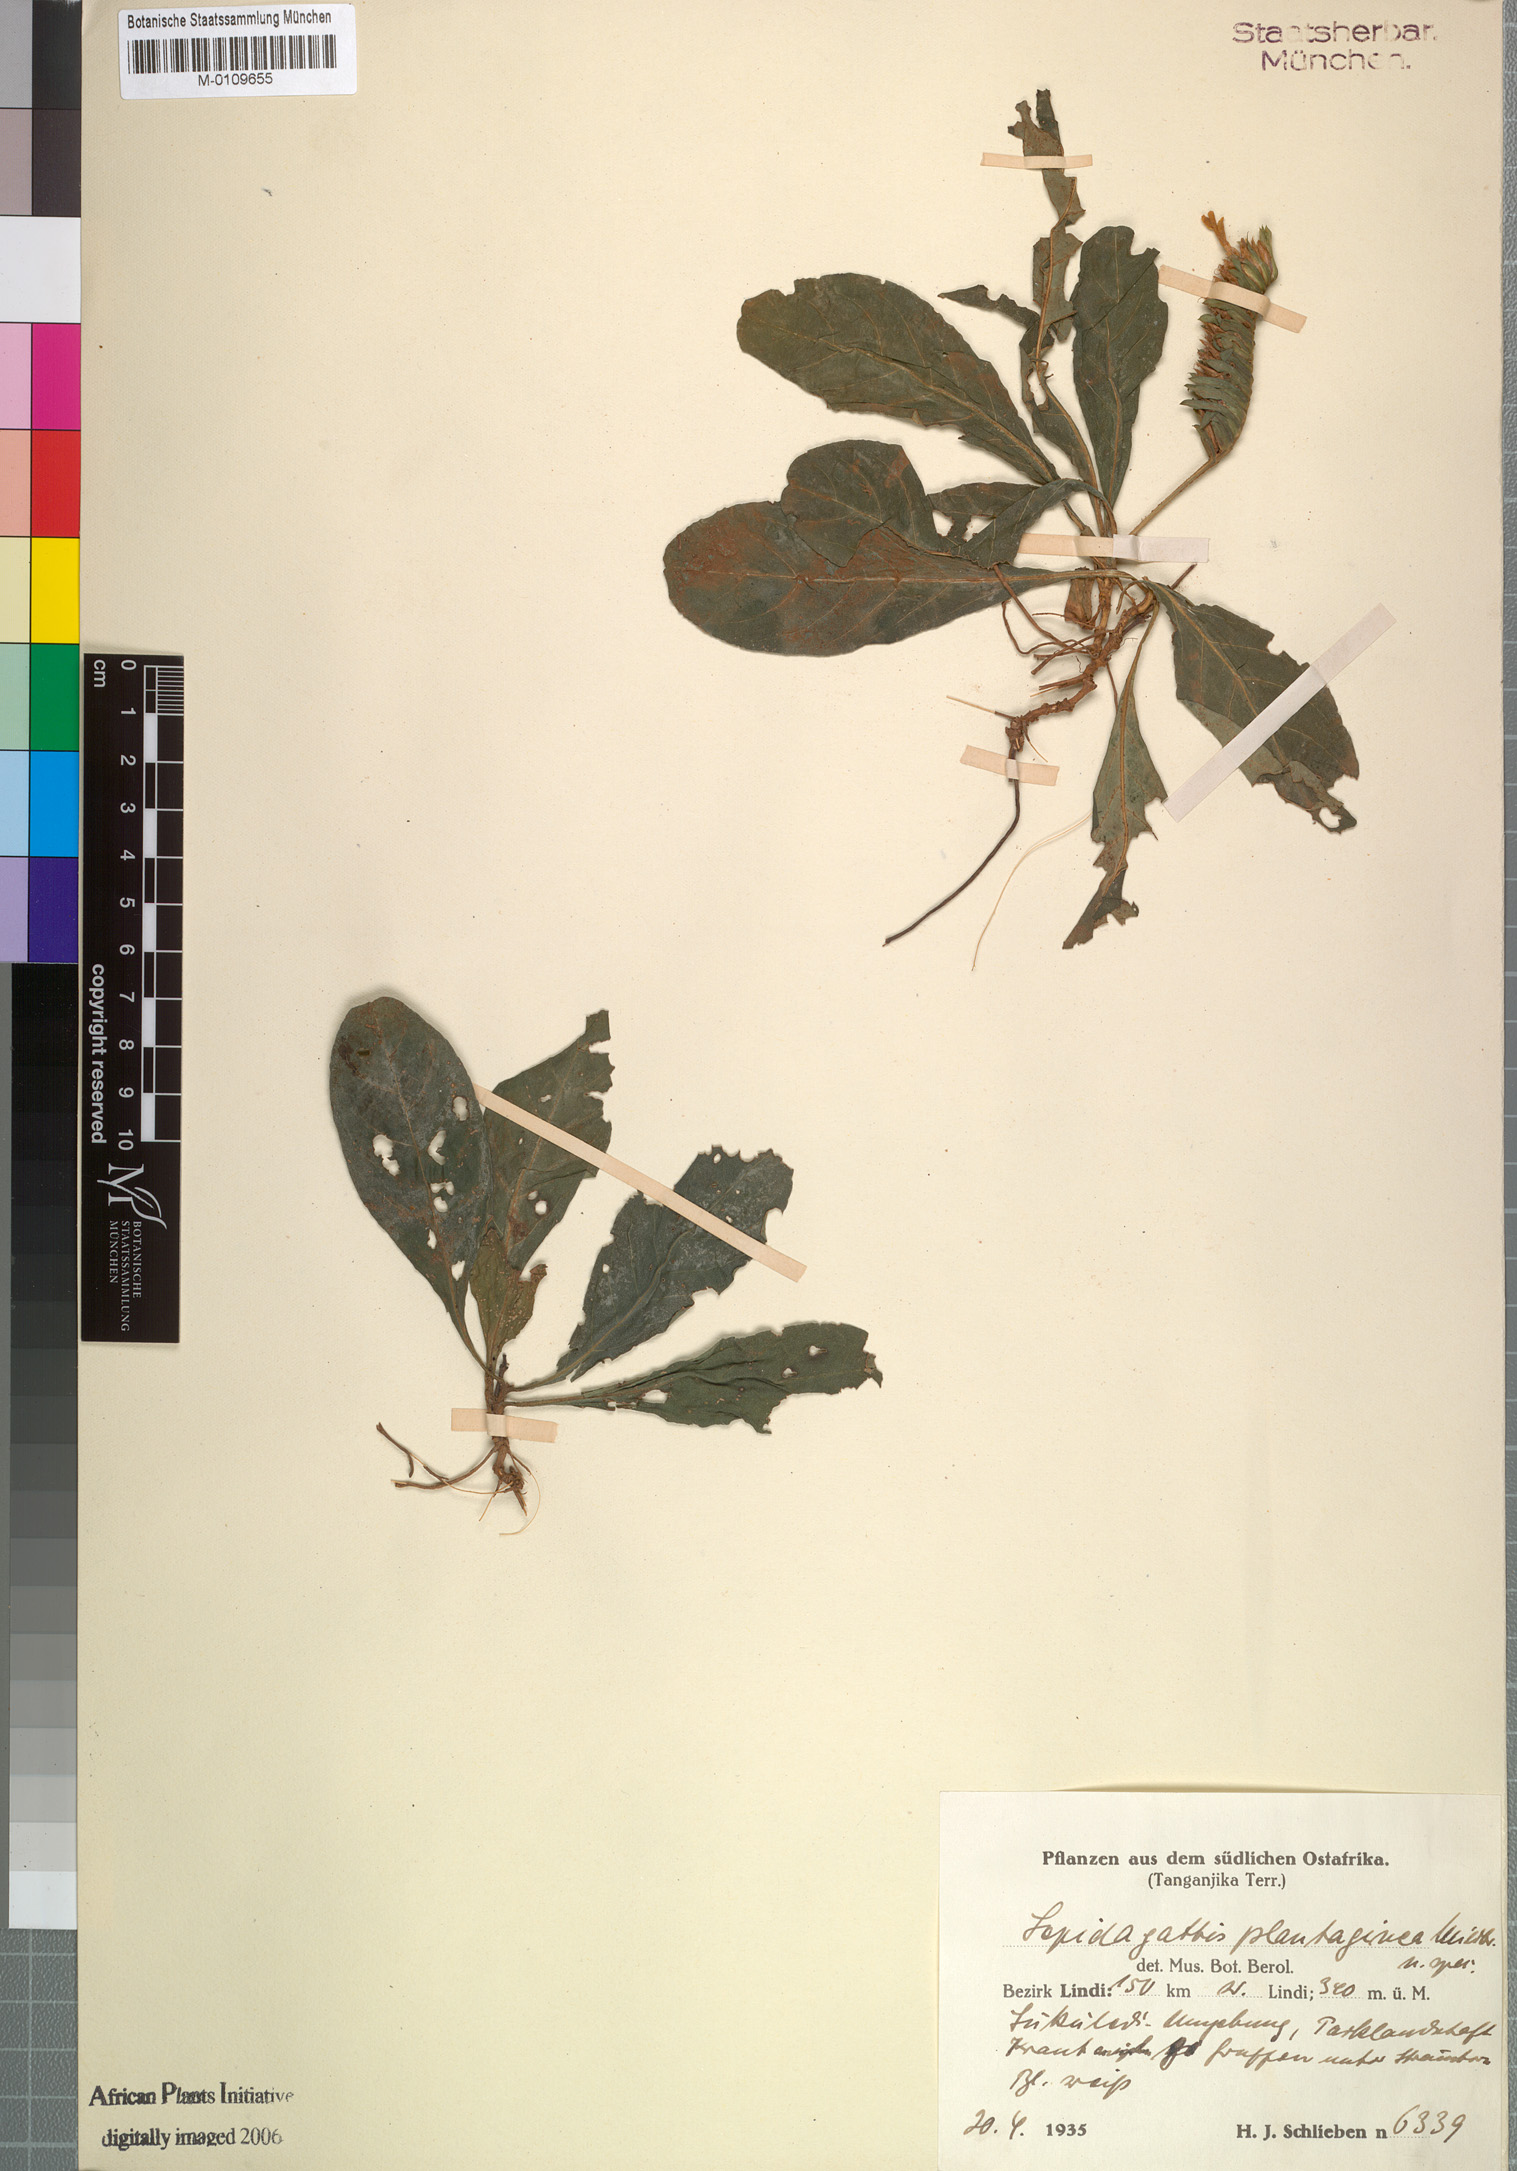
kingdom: Plantae
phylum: Tracheophyta
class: Magnoliopsida
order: Lamiales
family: Acanthaceae
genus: Lepidagathis
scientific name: Lepidagathis plantaginea
